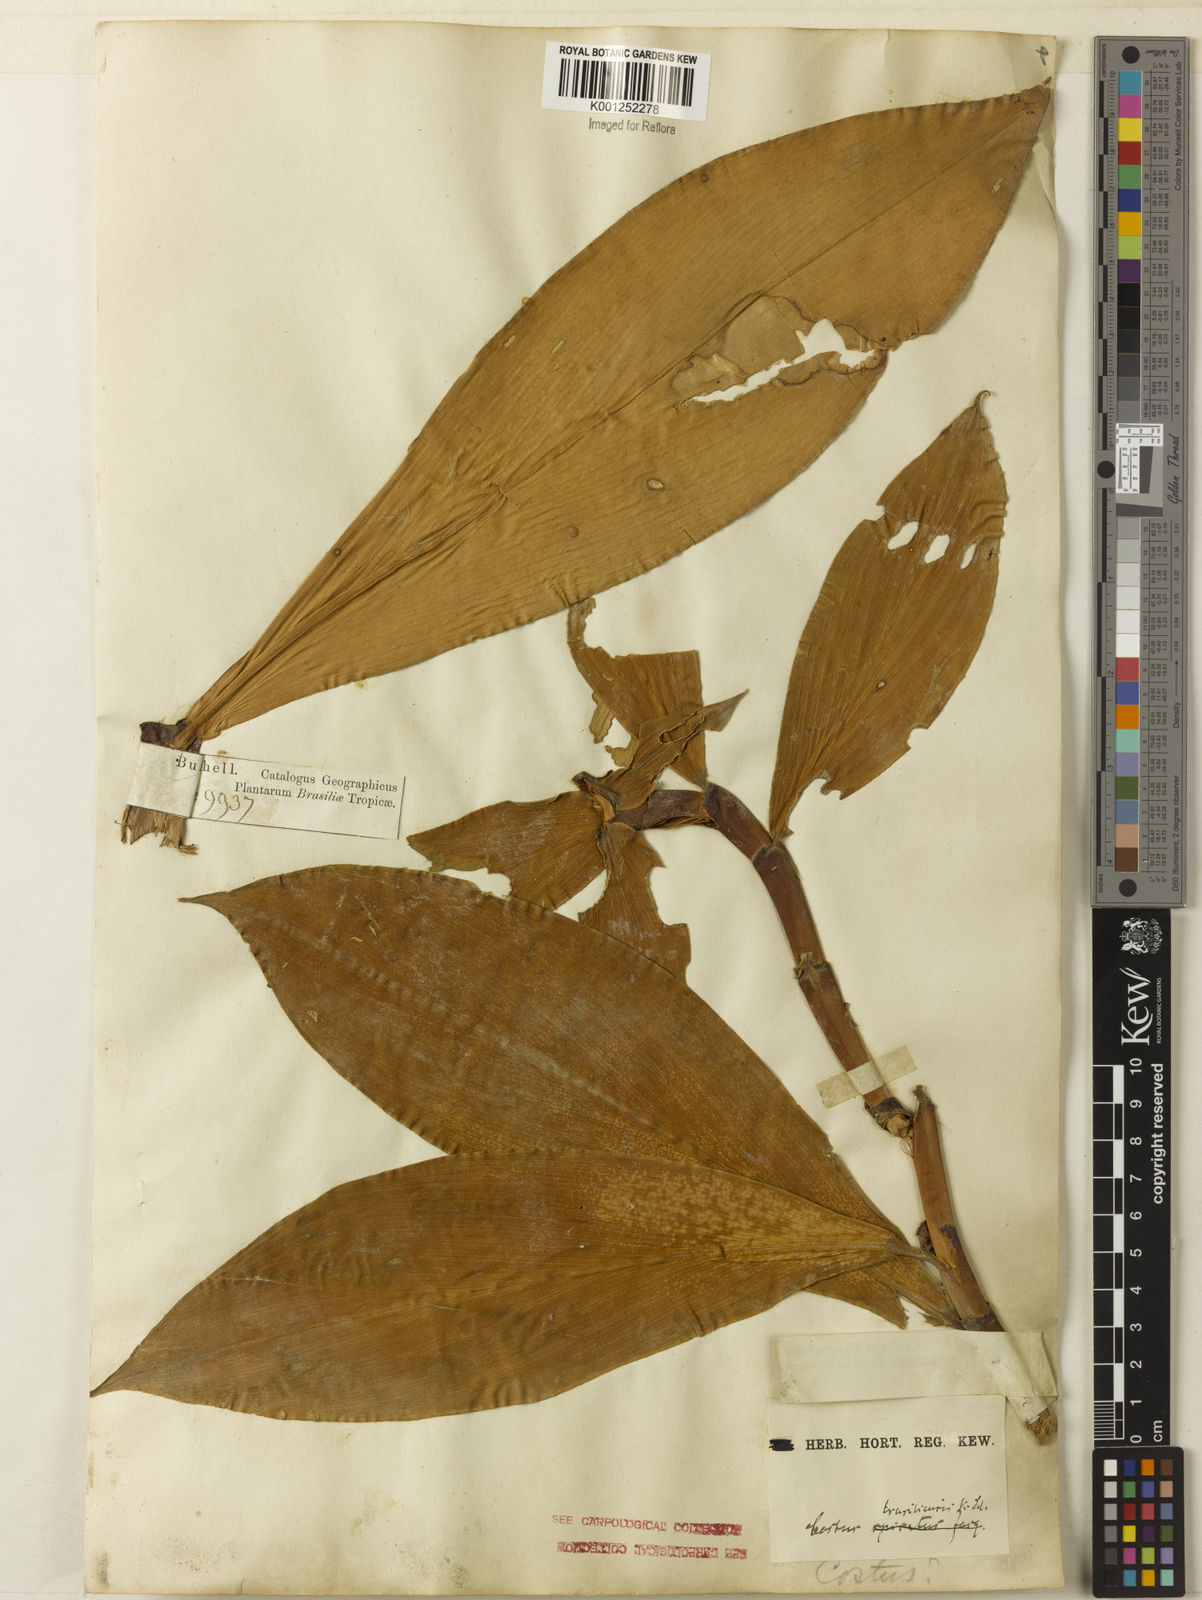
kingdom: Plantae
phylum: Tracheophyta
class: Liliopsida
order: Zingiberales
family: Costaceae
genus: Costus
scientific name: Costus spiralis
